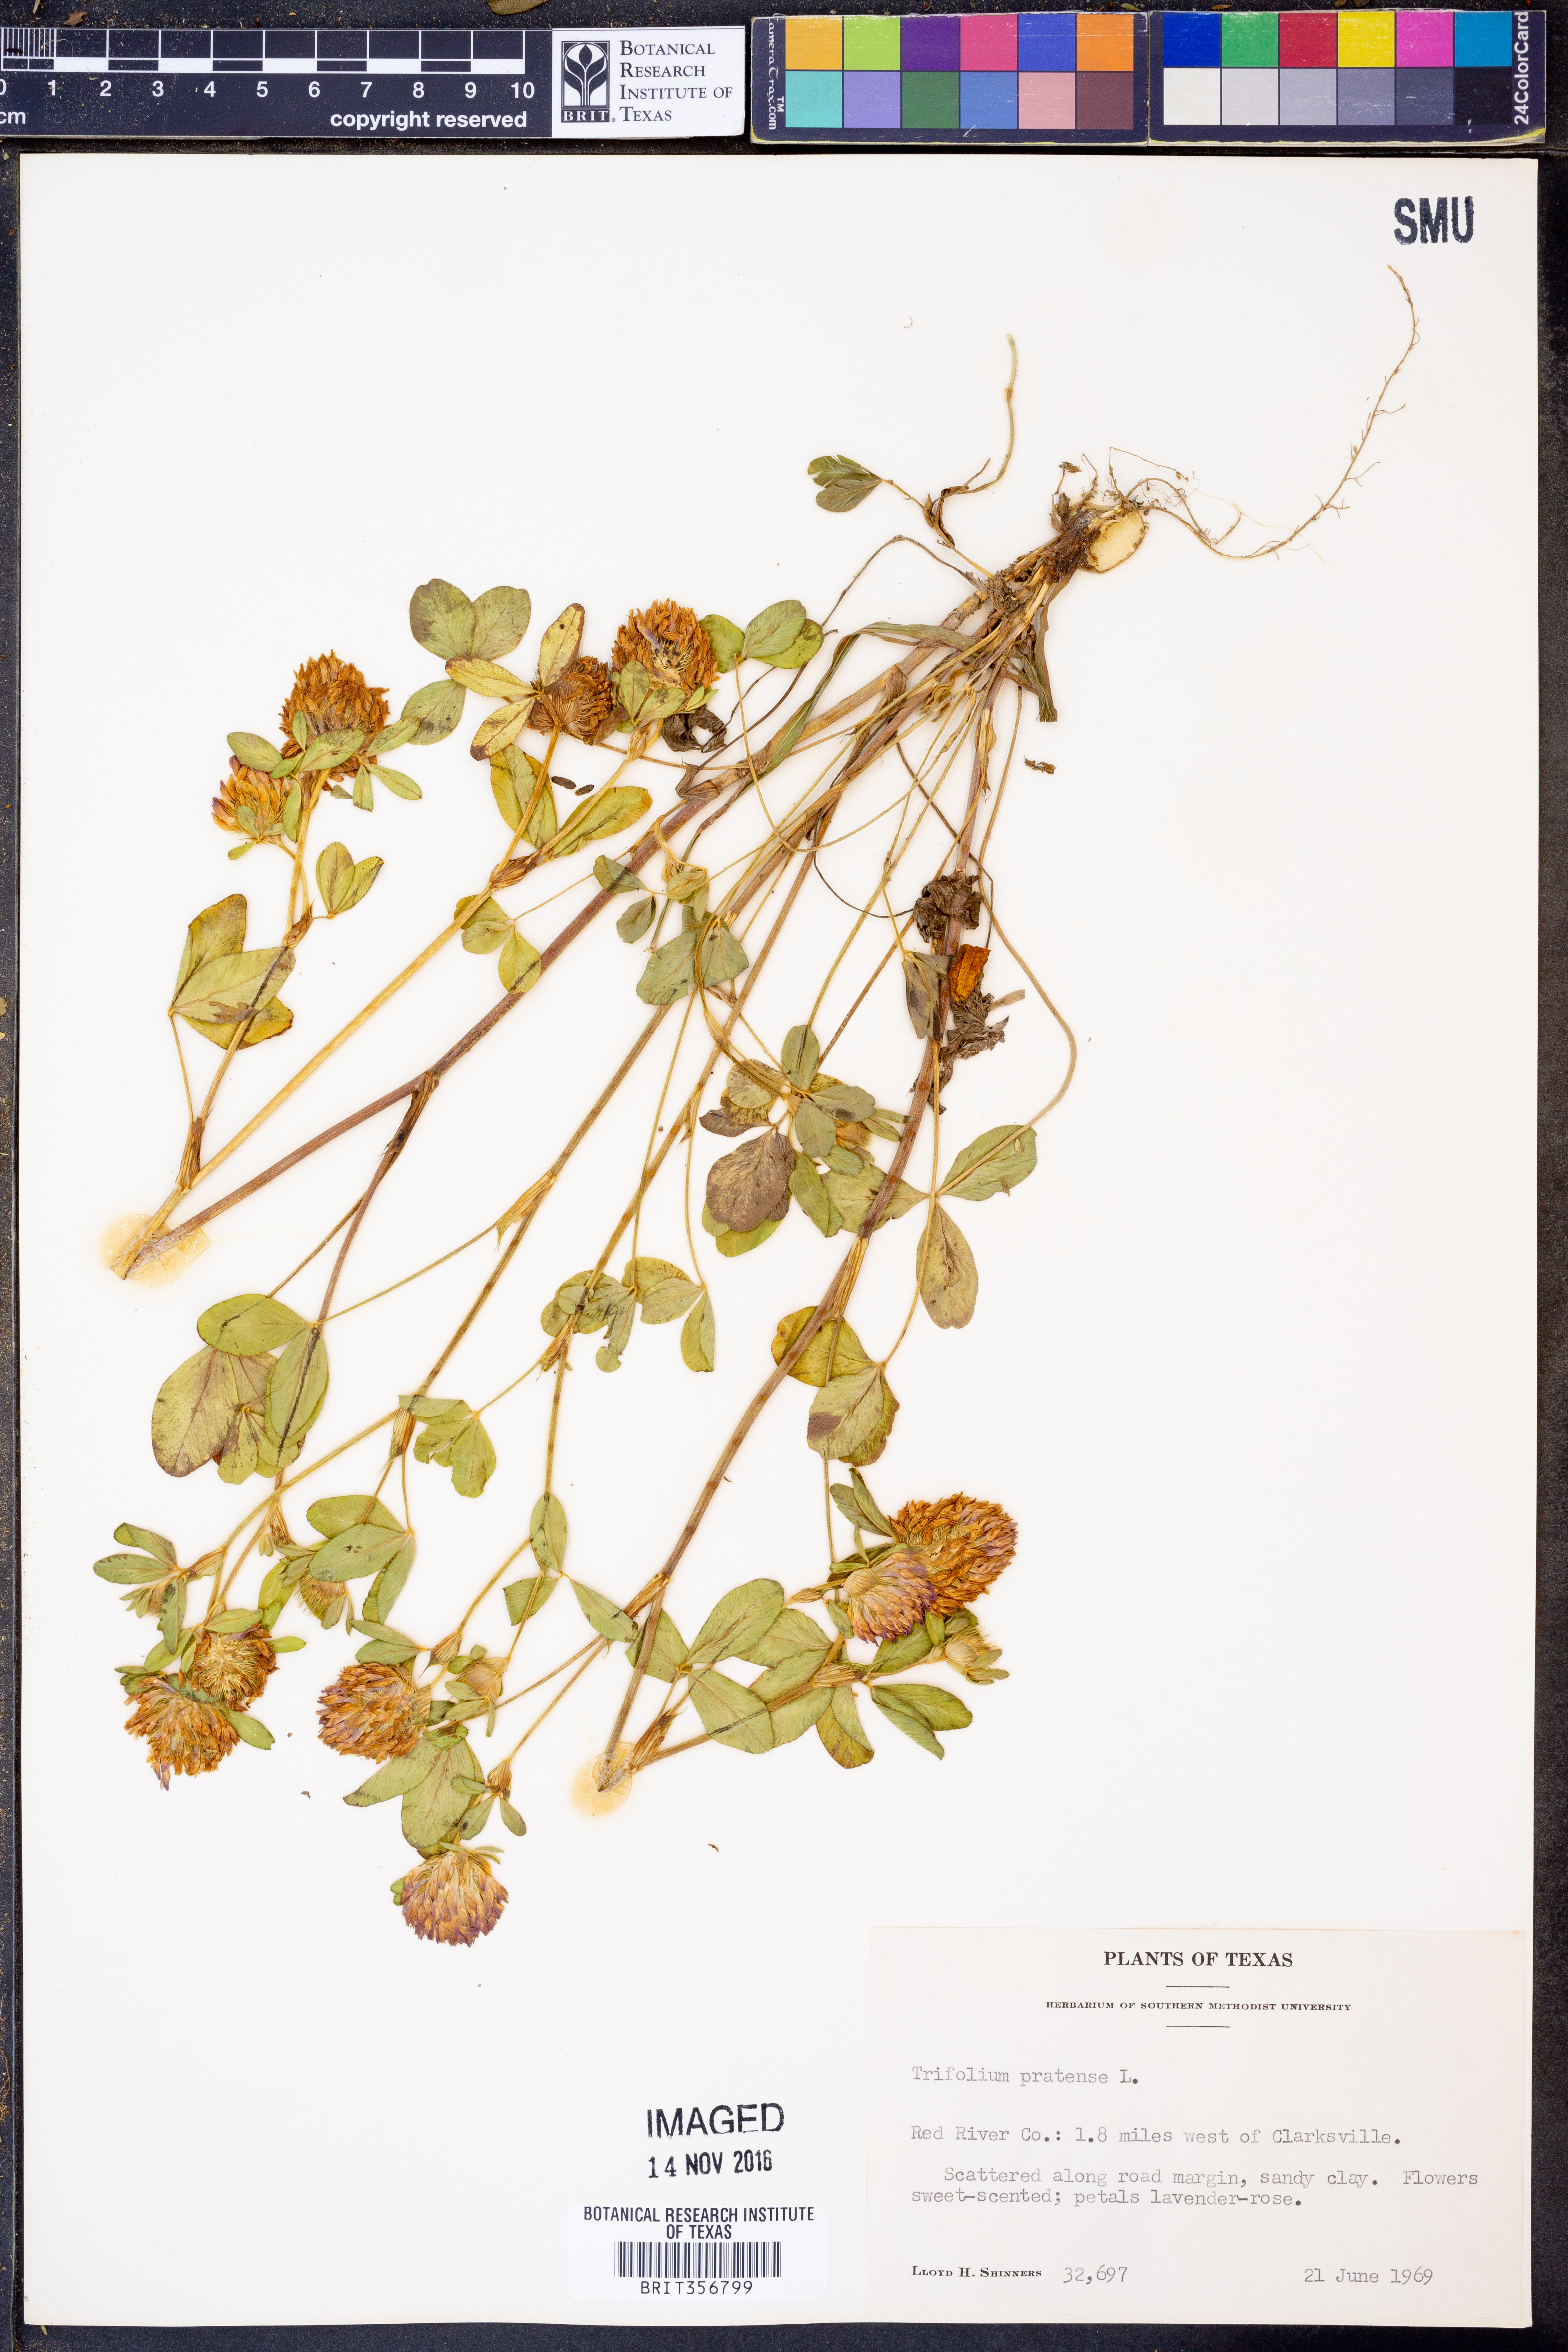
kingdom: Plantae
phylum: Tracheophyta
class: Magnoliopsida
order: Fabales
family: Fabaceae
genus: Trifolium
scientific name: Trifolium pratense
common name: Red clover
